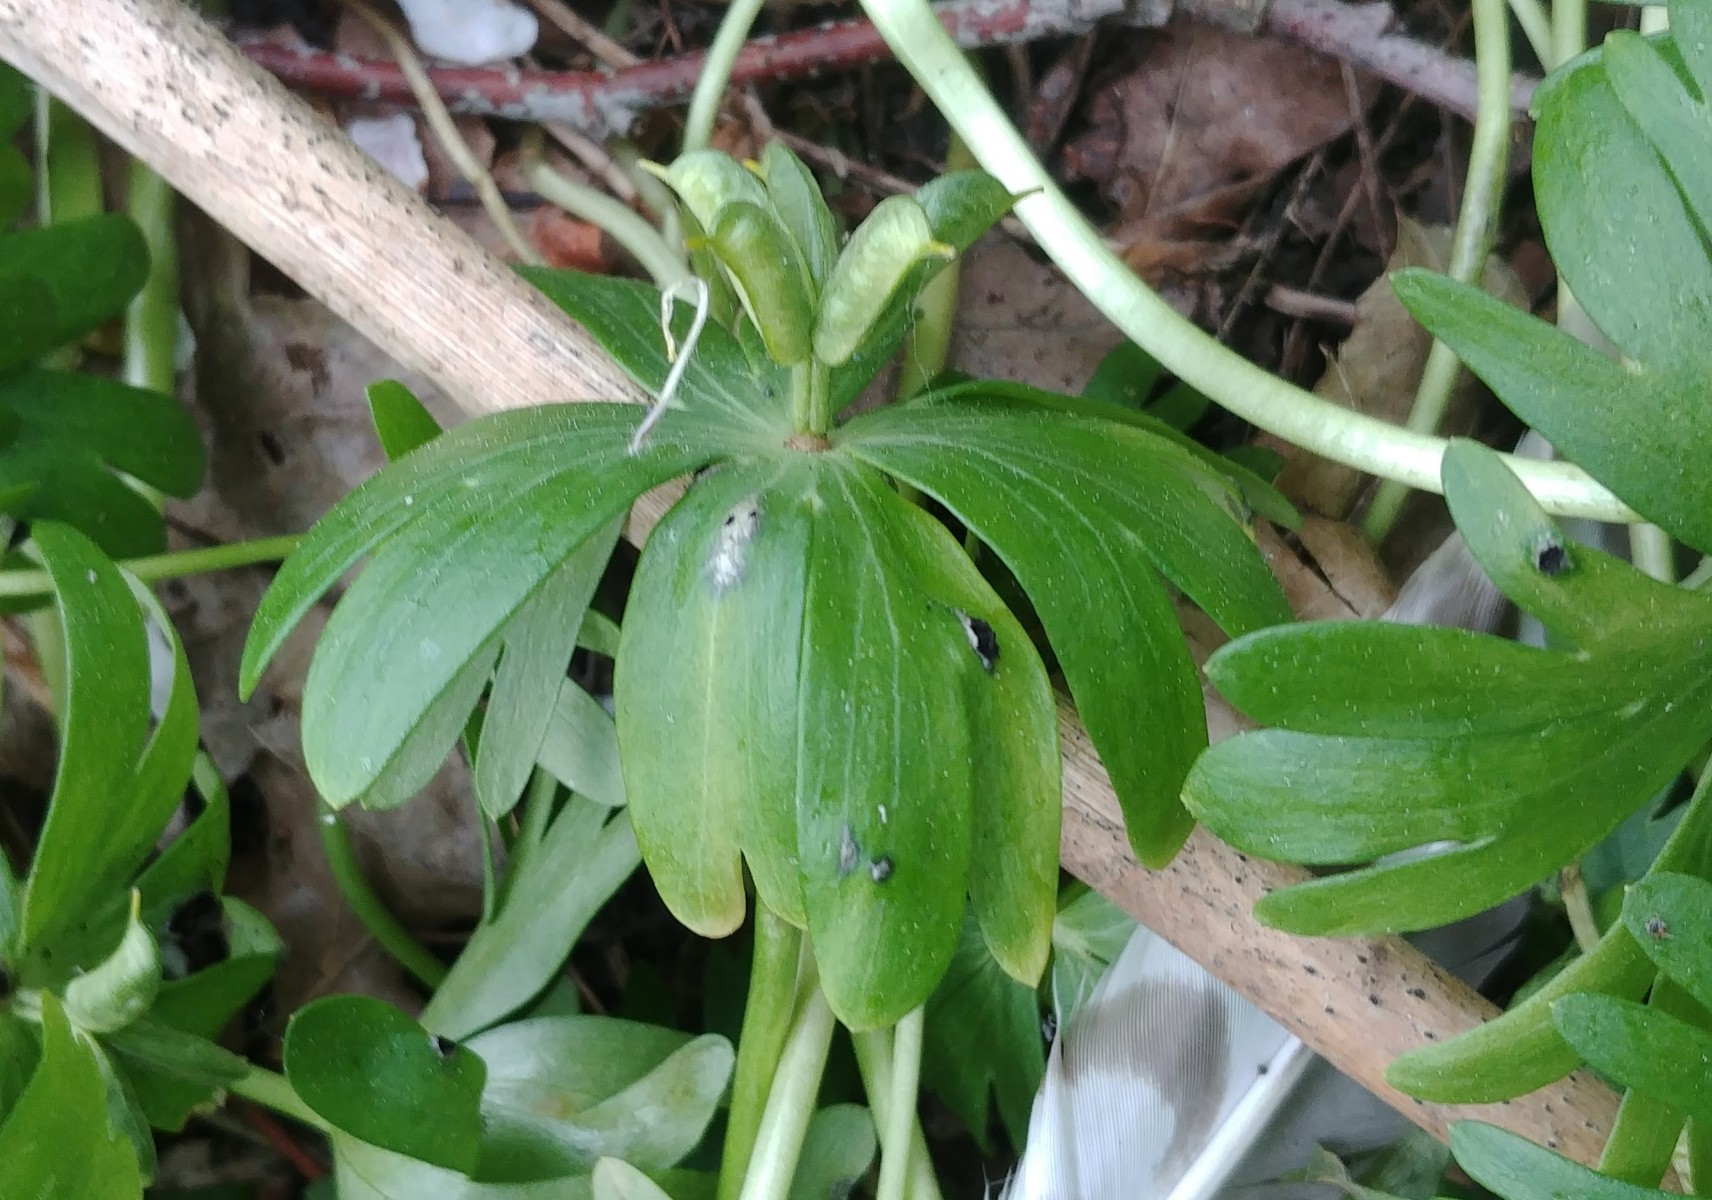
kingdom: Fungi
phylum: Basidiomycota
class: Ustilaginomycetes
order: Urocystidales
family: Urocystidaceae
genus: Urocystis
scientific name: Urocystis eranthidis
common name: erantis-brand
